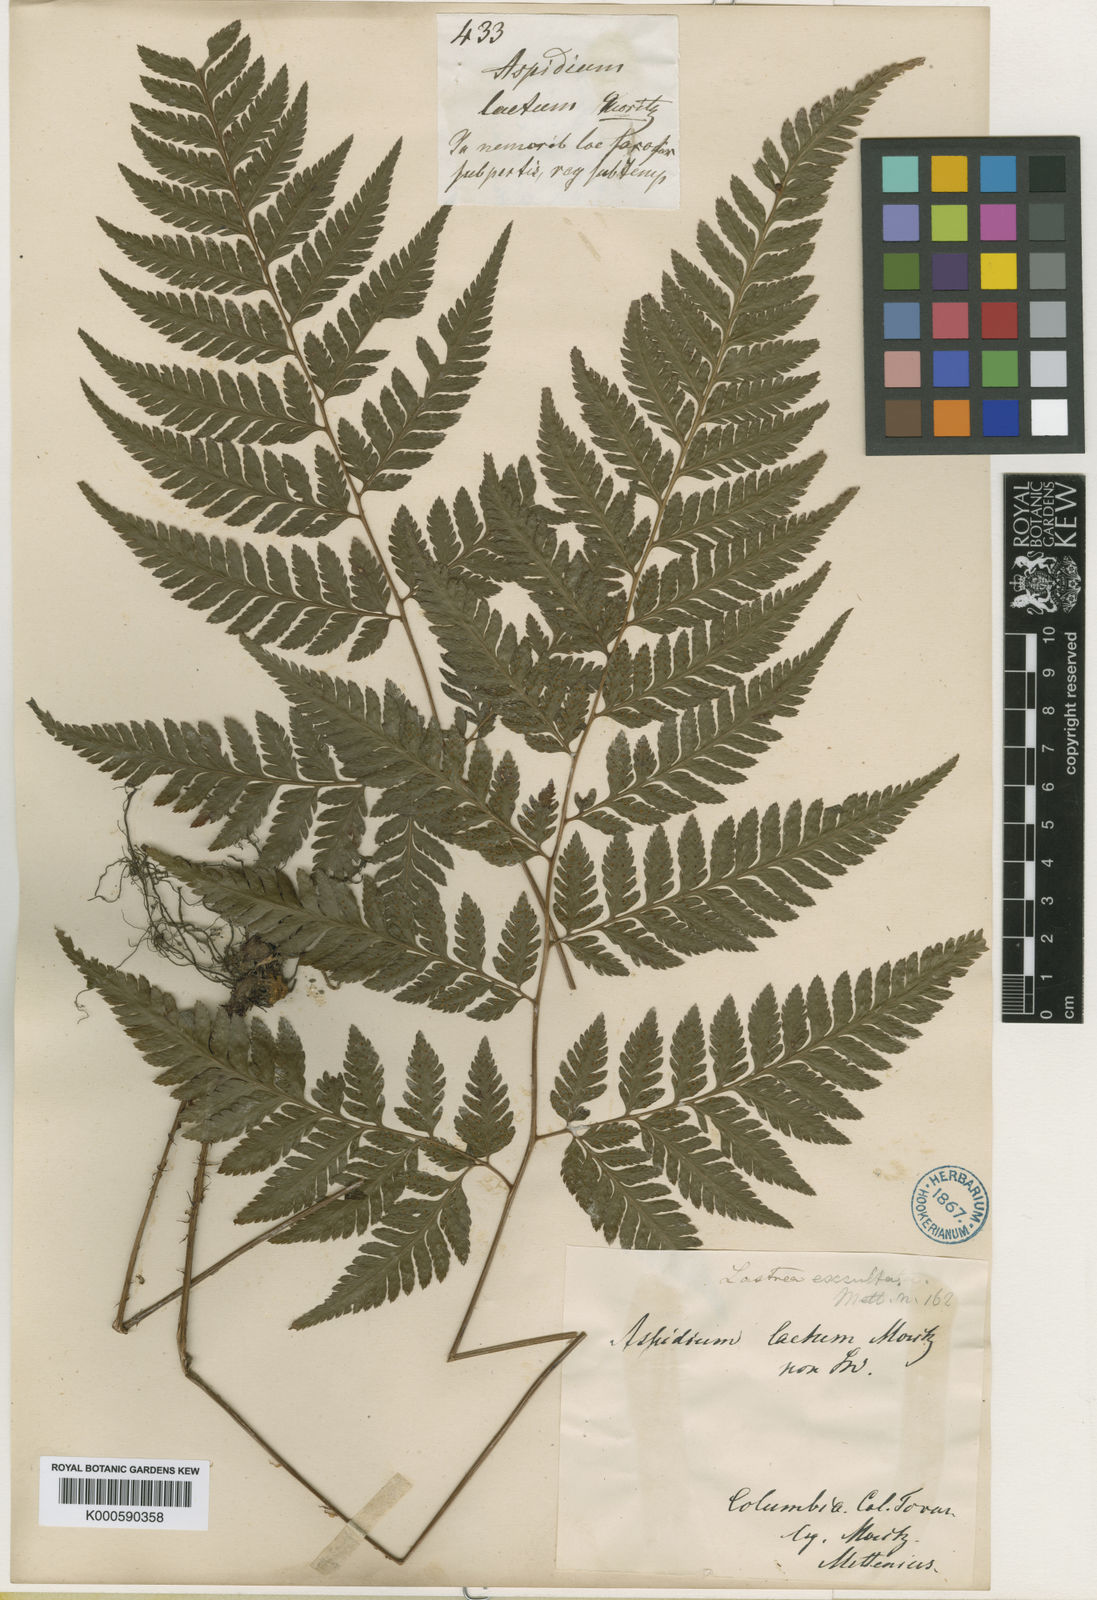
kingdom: Plantae
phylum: Tracheophyta
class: Polypodiopsida
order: Polypodiales
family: Dryopteridaceae
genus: Parapolystichum
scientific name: Parapolystichum excultum
